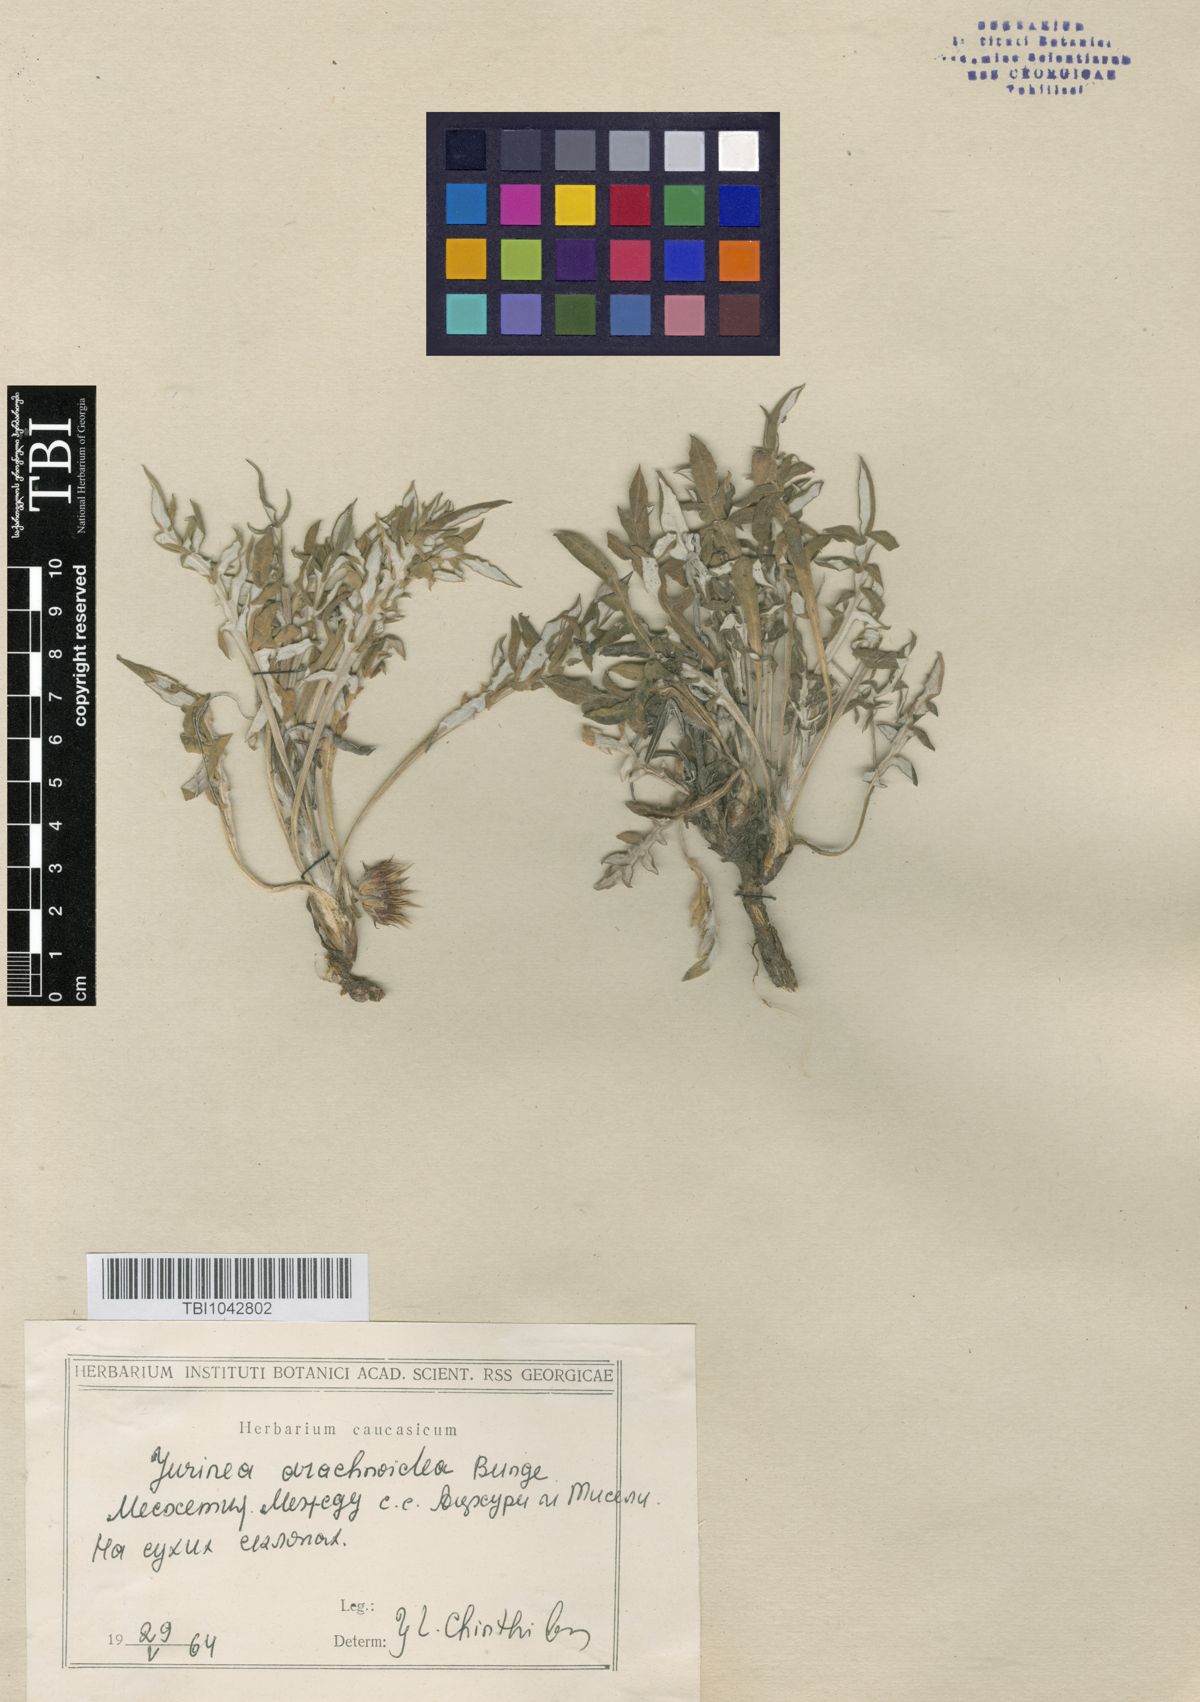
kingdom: Plantae
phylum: Tracheophyta
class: Magnoliopsida
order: Asterales
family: Asteraceae
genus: Jurinea
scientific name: Jurinea blanda
